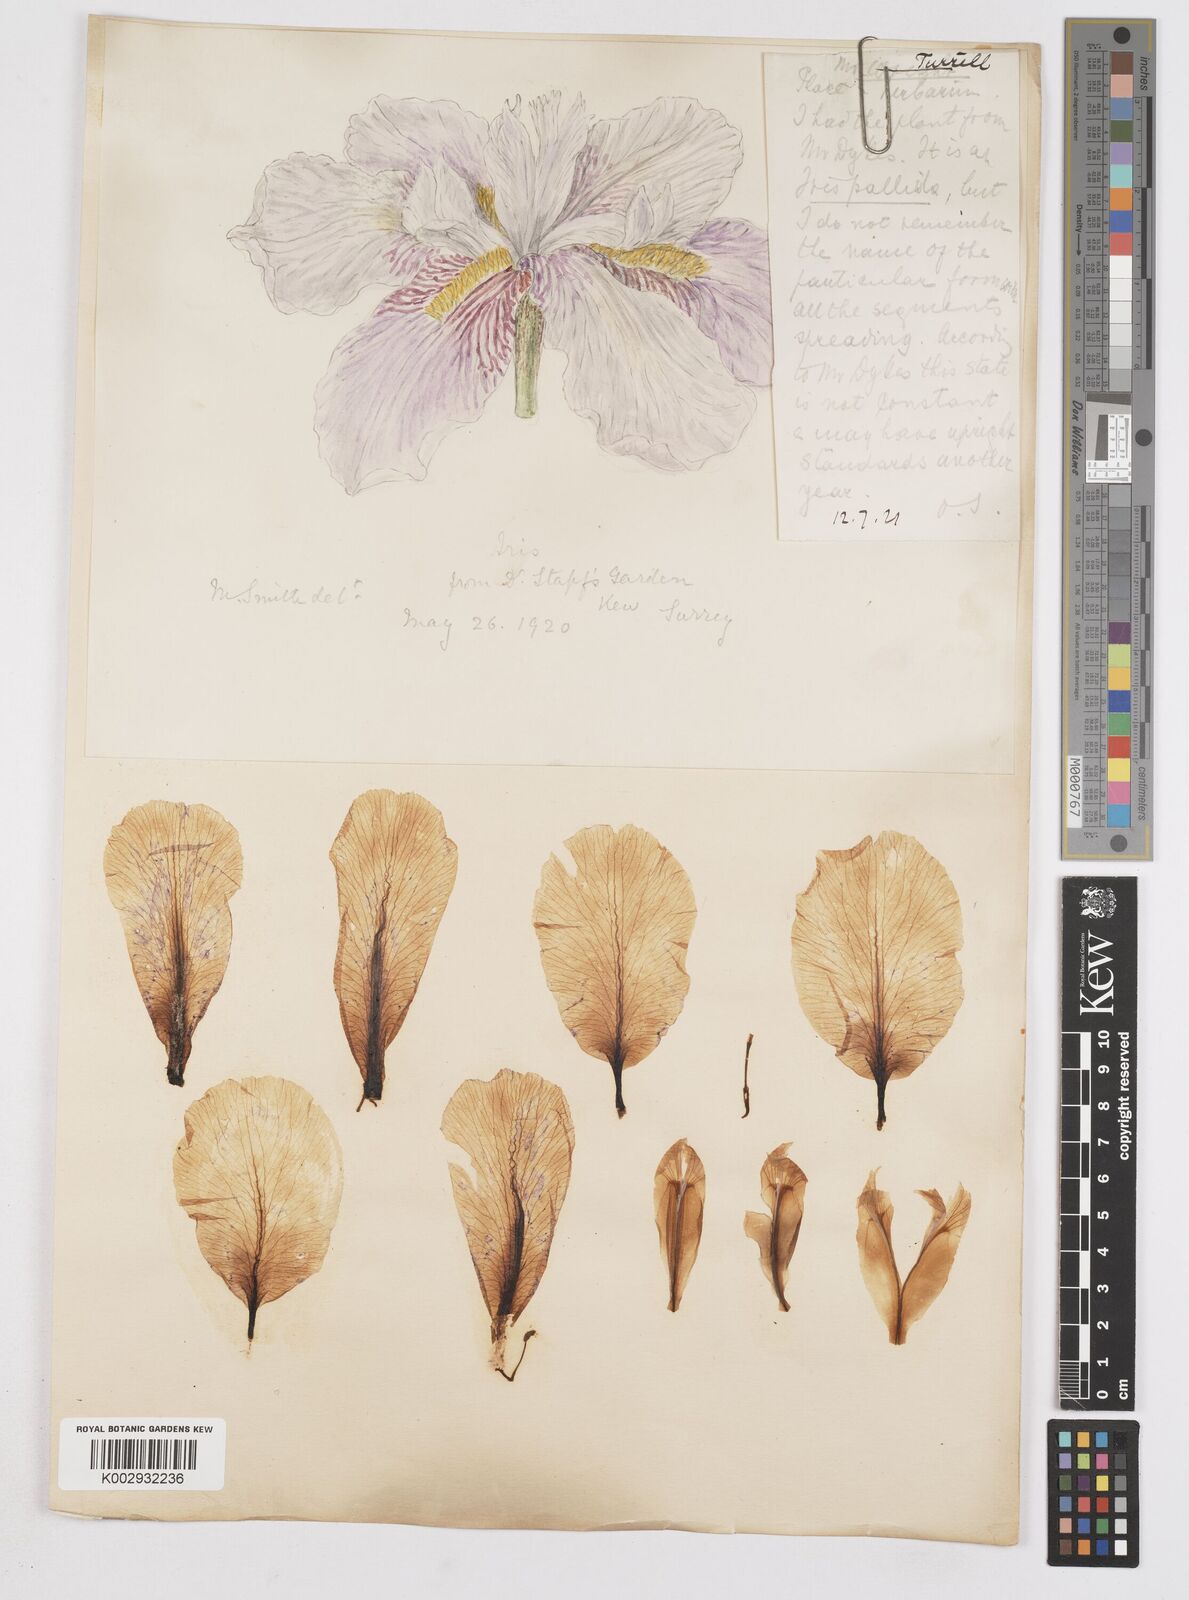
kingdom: Plantae
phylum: Tracheophyta
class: Liliopsida
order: Asparagales
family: Iridaceae
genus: Iris
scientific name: Iris pallida
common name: Sweet iris
